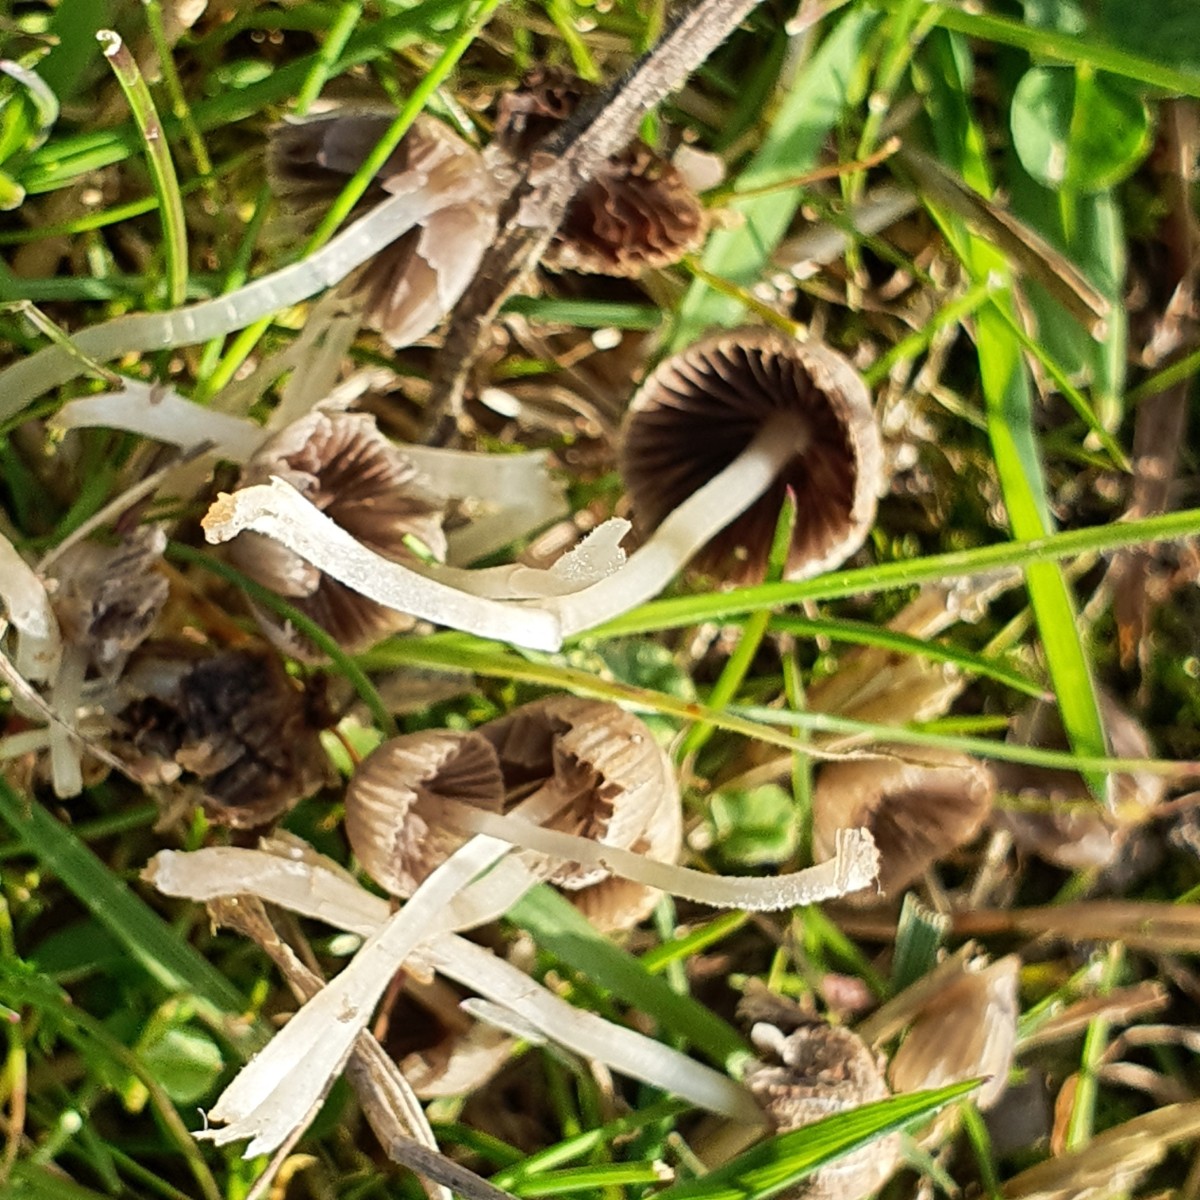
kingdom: Fungi
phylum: Basidiomycota
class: Agaricomycetes
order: Agaricales
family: Psathyrellaceae
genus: Coprinellus
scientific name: Coprinellus disseminatus
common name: bredsået blækhat
